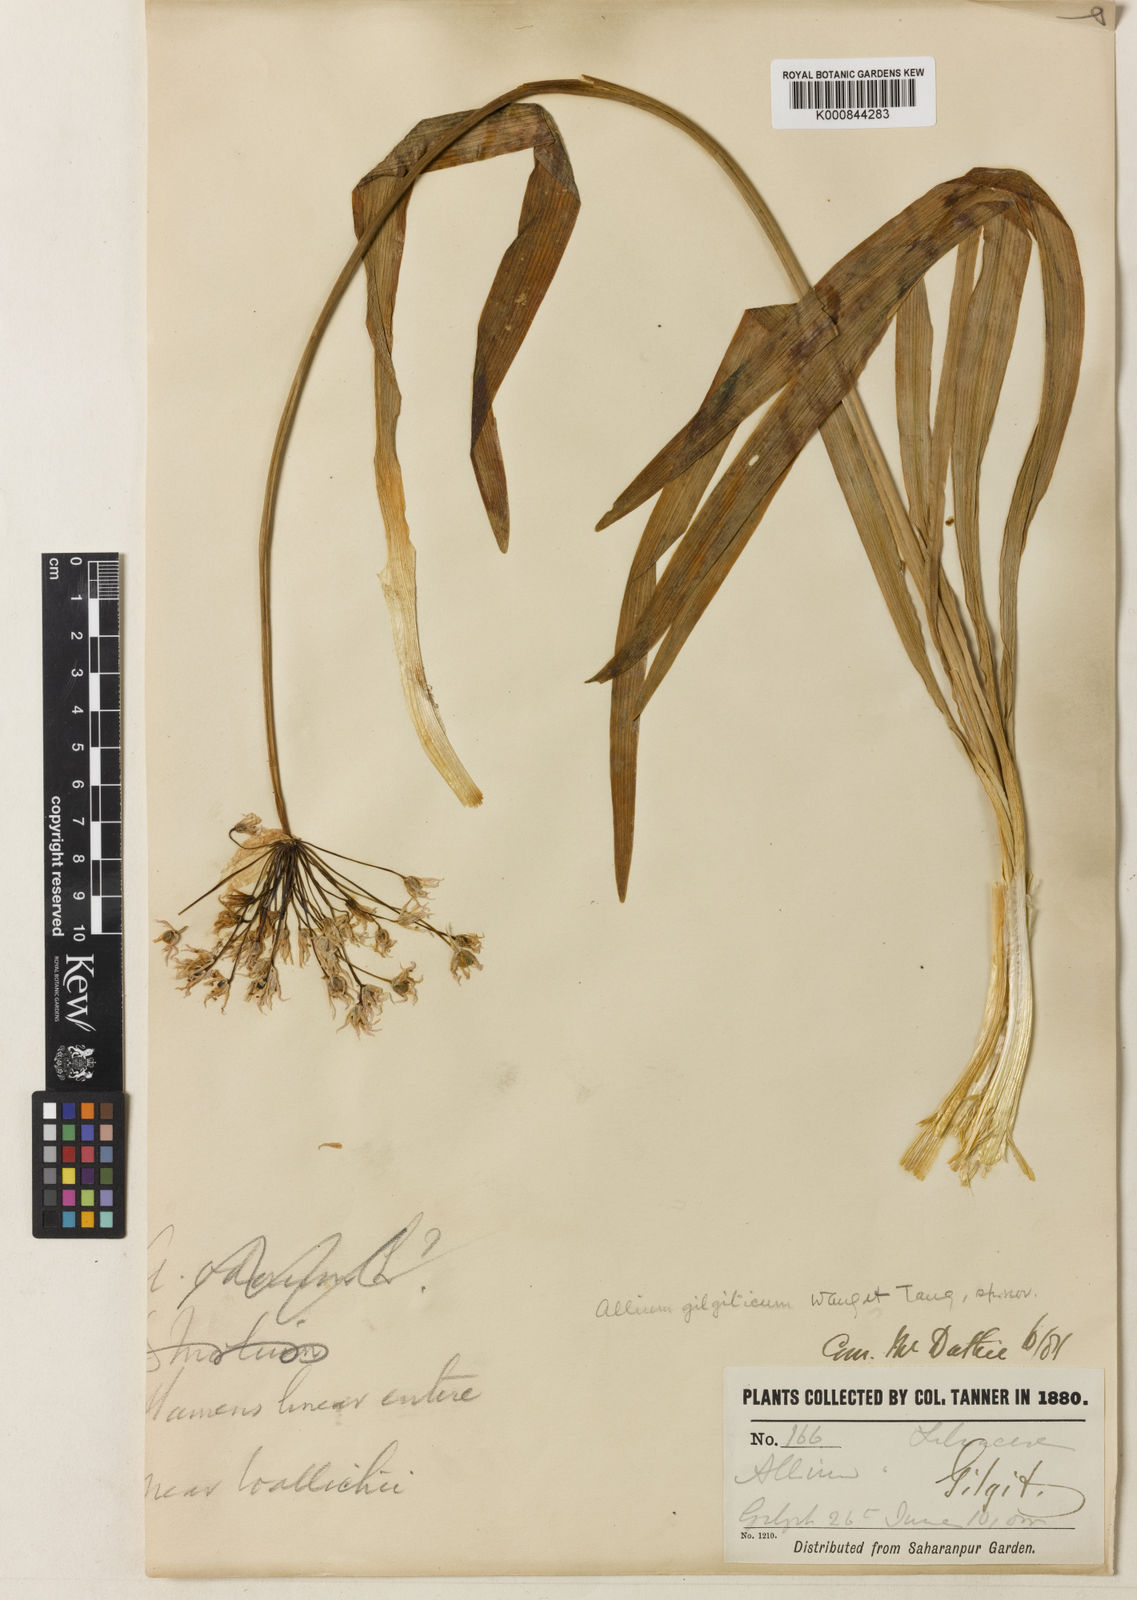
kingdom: Plantae
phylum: Tracheophyta
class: Liliopsida
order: Asparagales
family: Amaryllidaceae
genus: Allium
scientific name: Allium gilgiticum
